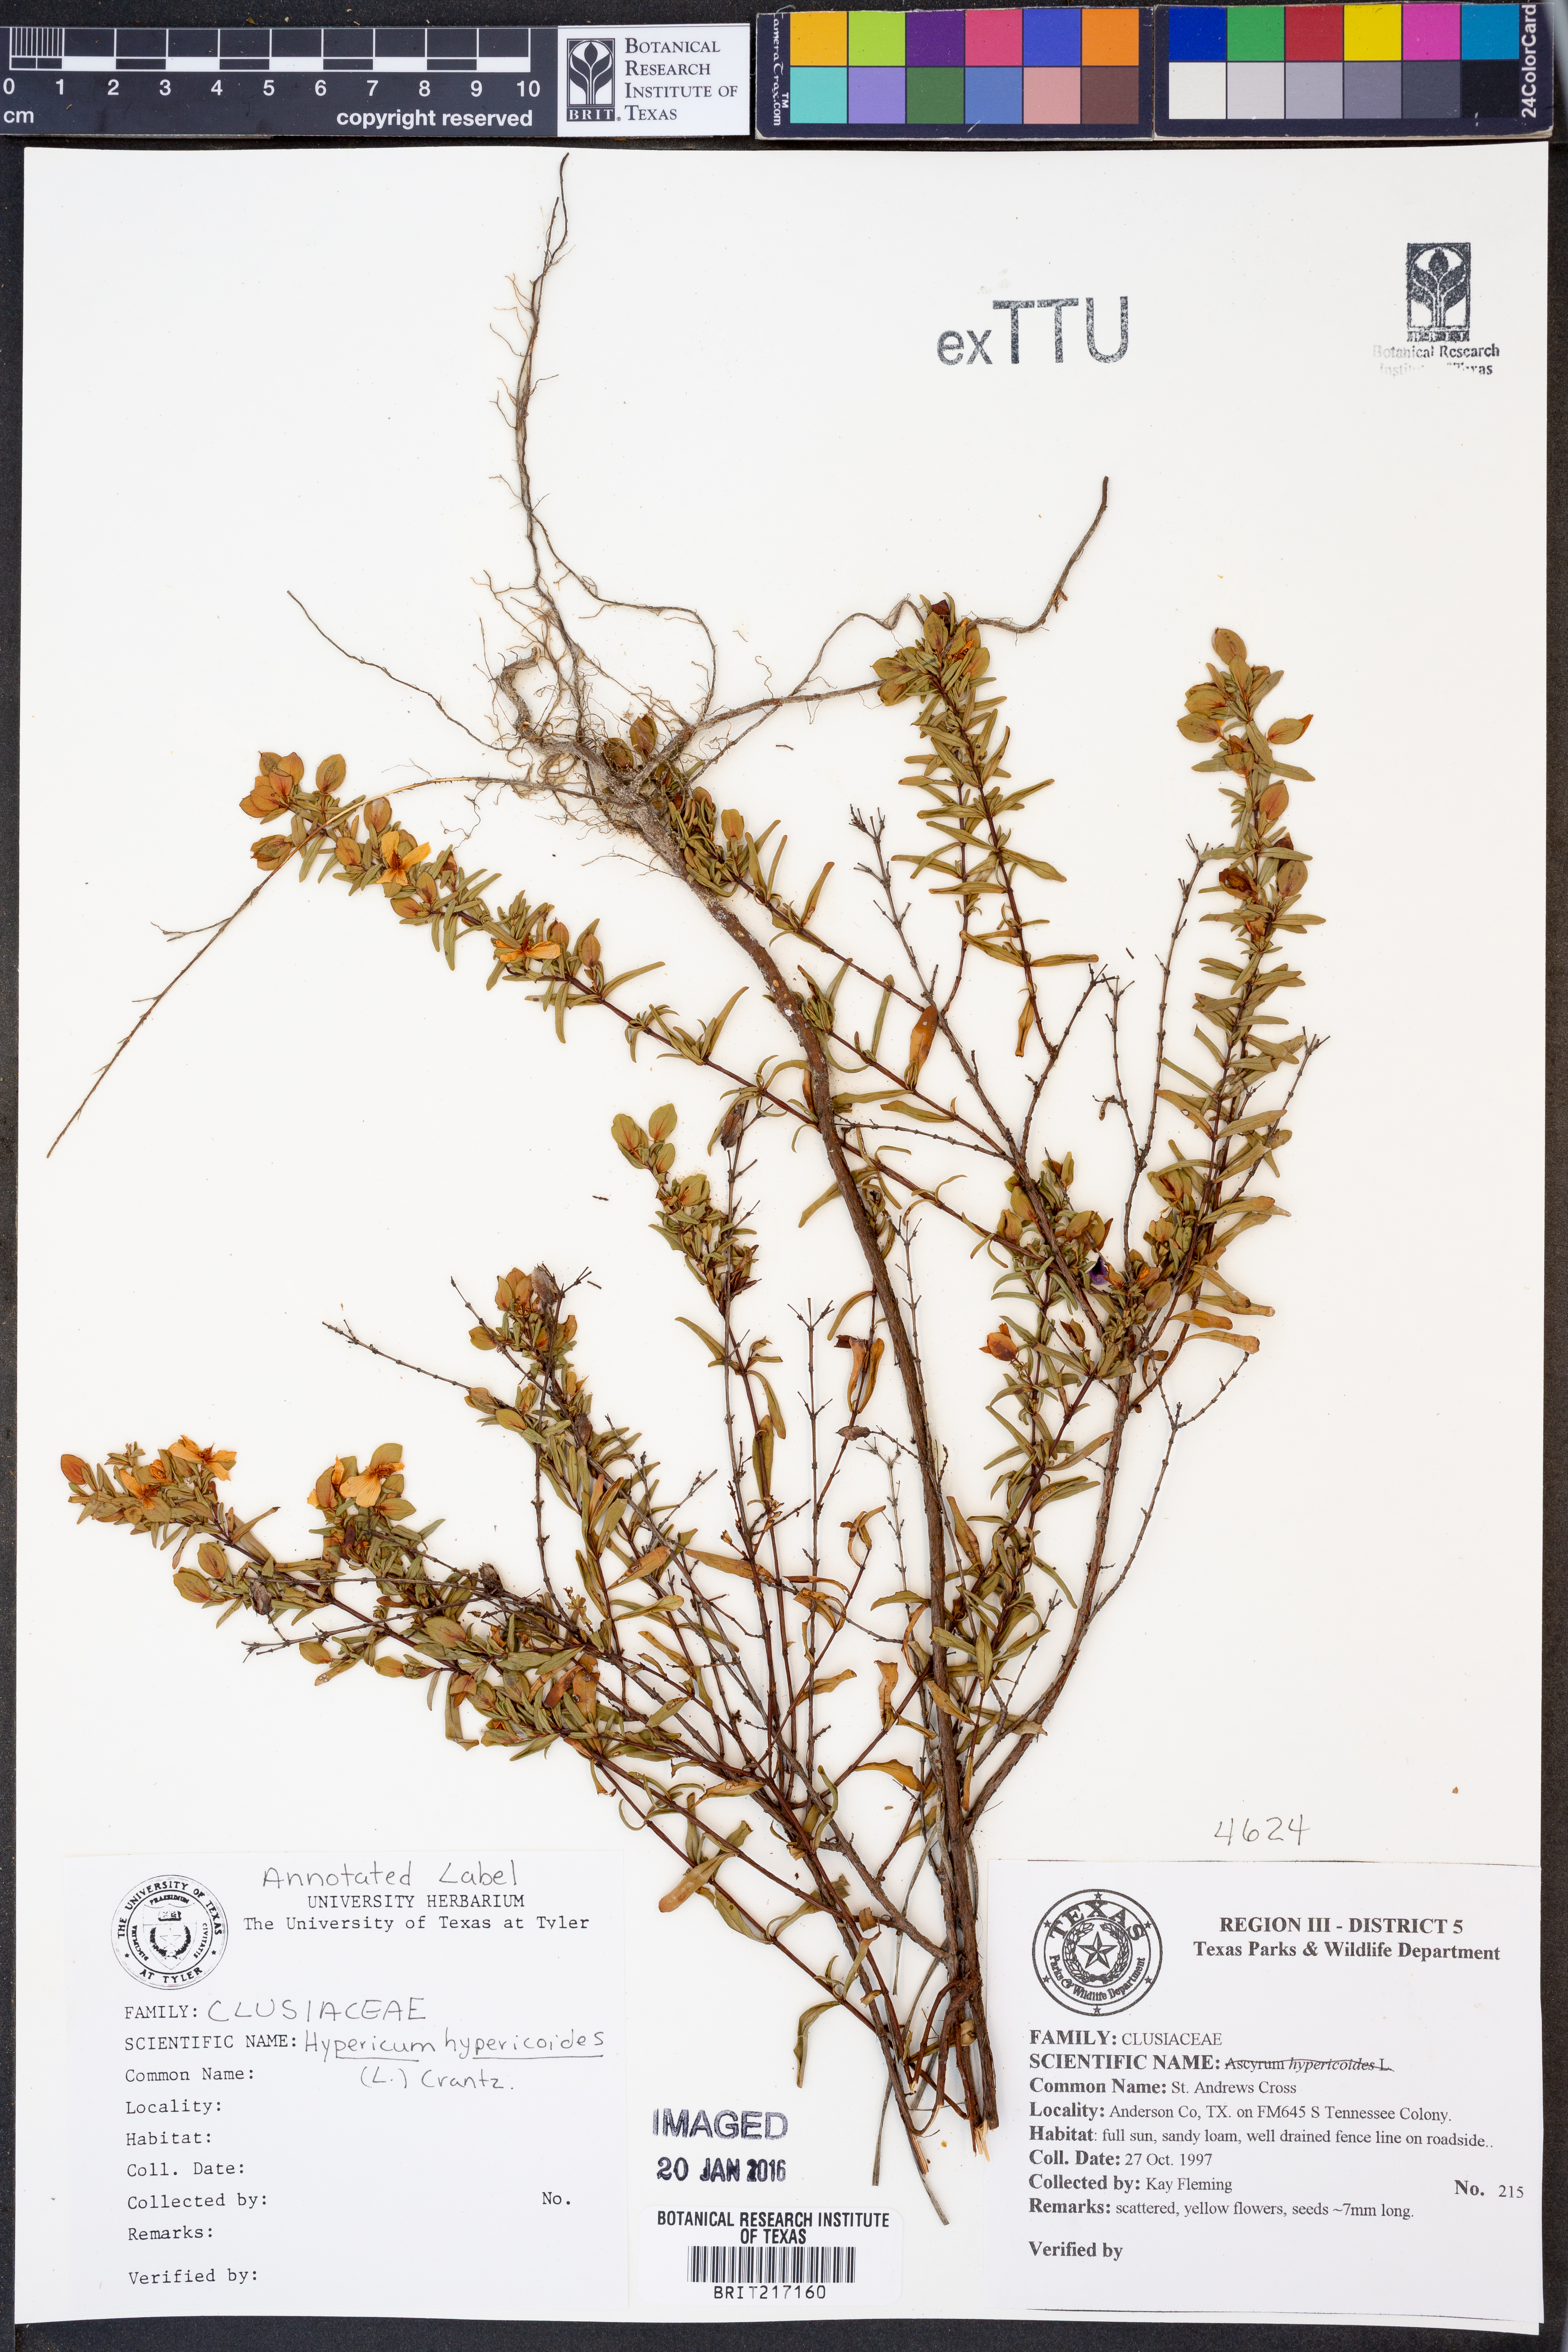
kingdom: Plantae
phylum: Tracheophyta
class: Magnoliopsida
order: Malpighiales
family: Hypericaceae
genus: Hypericum
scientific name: Hypericum hypericoides
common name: St. andrew's cross
